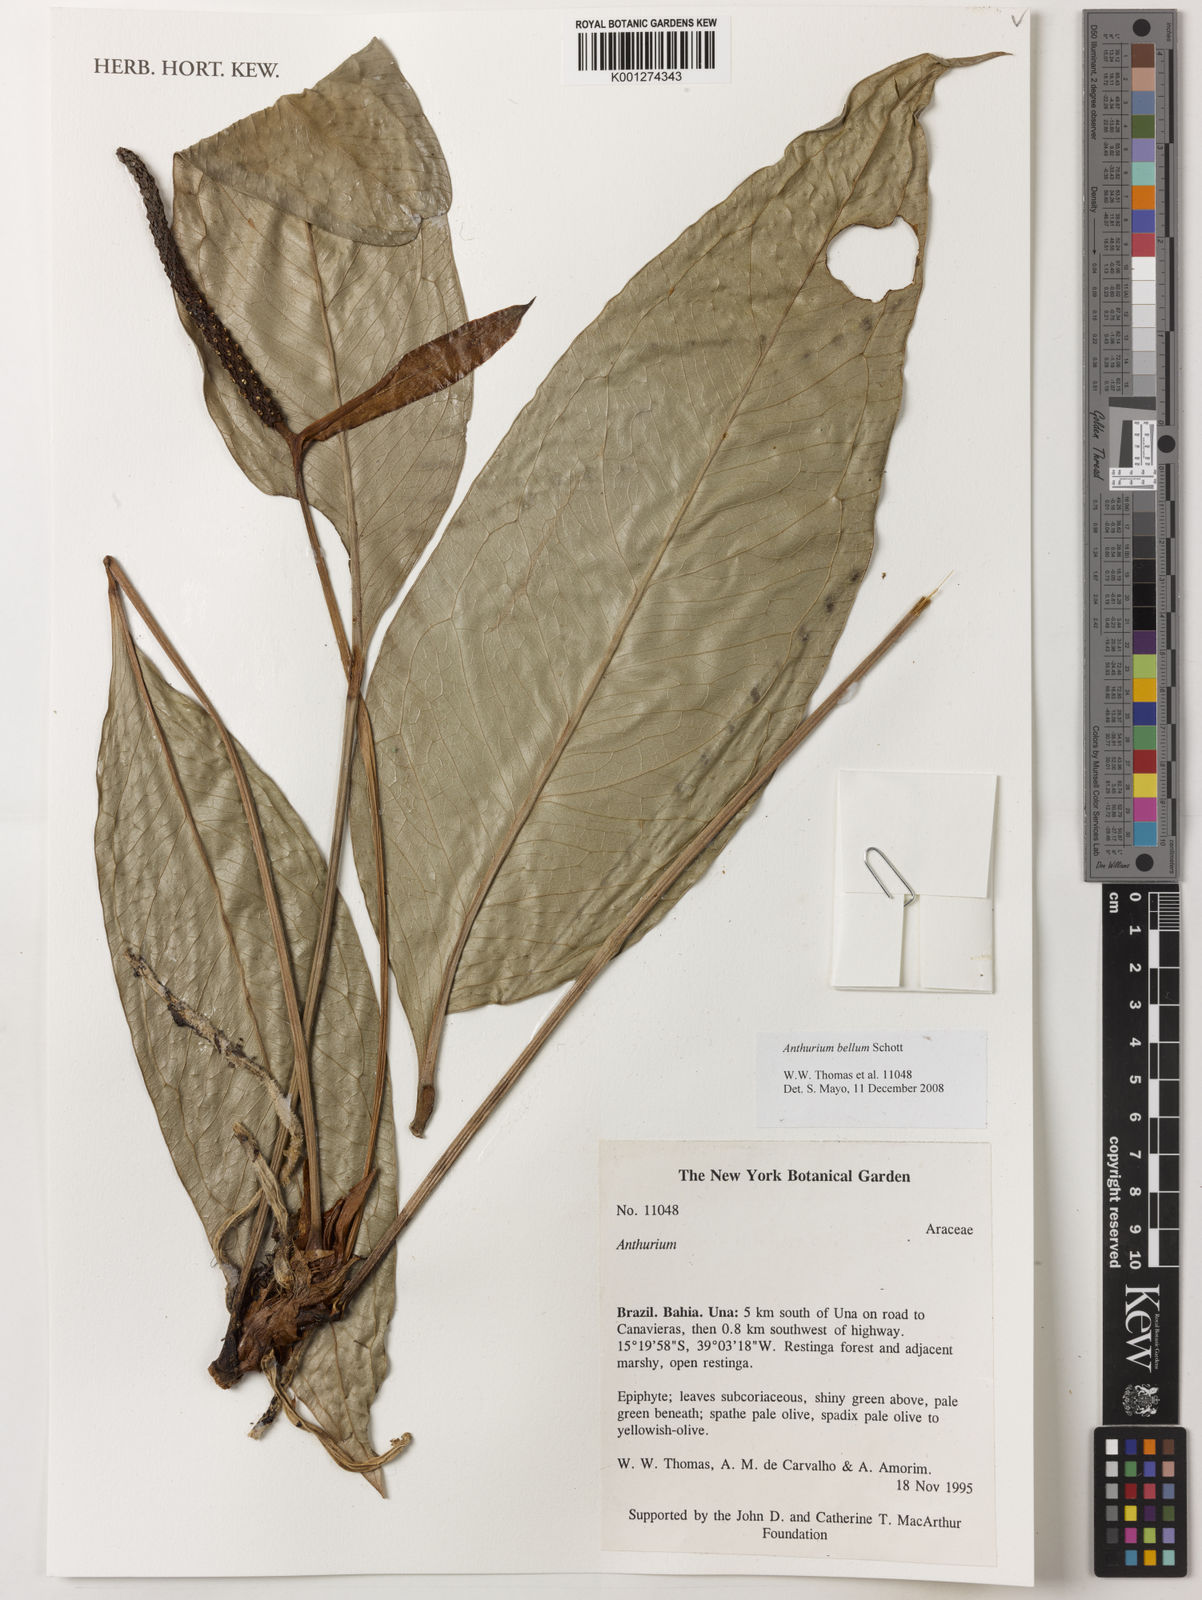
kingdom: Plantae
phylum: Tracheophyta
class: Liliopsida
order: Alismatales
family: Araceae
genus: Anthurium
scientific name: Anthurium bellum
